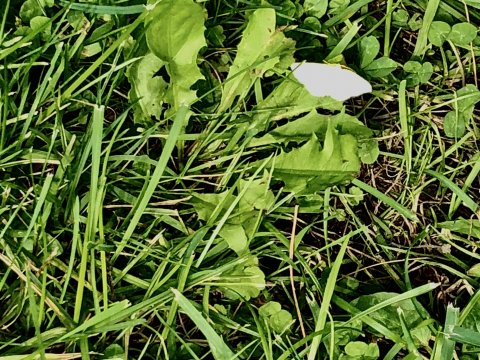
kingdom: Animalia
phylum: Arthropoda
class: Insecta
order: Lepidoptera
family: Pieridae
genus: Pieris
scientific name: Pieris rapae
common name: Cabbage White
